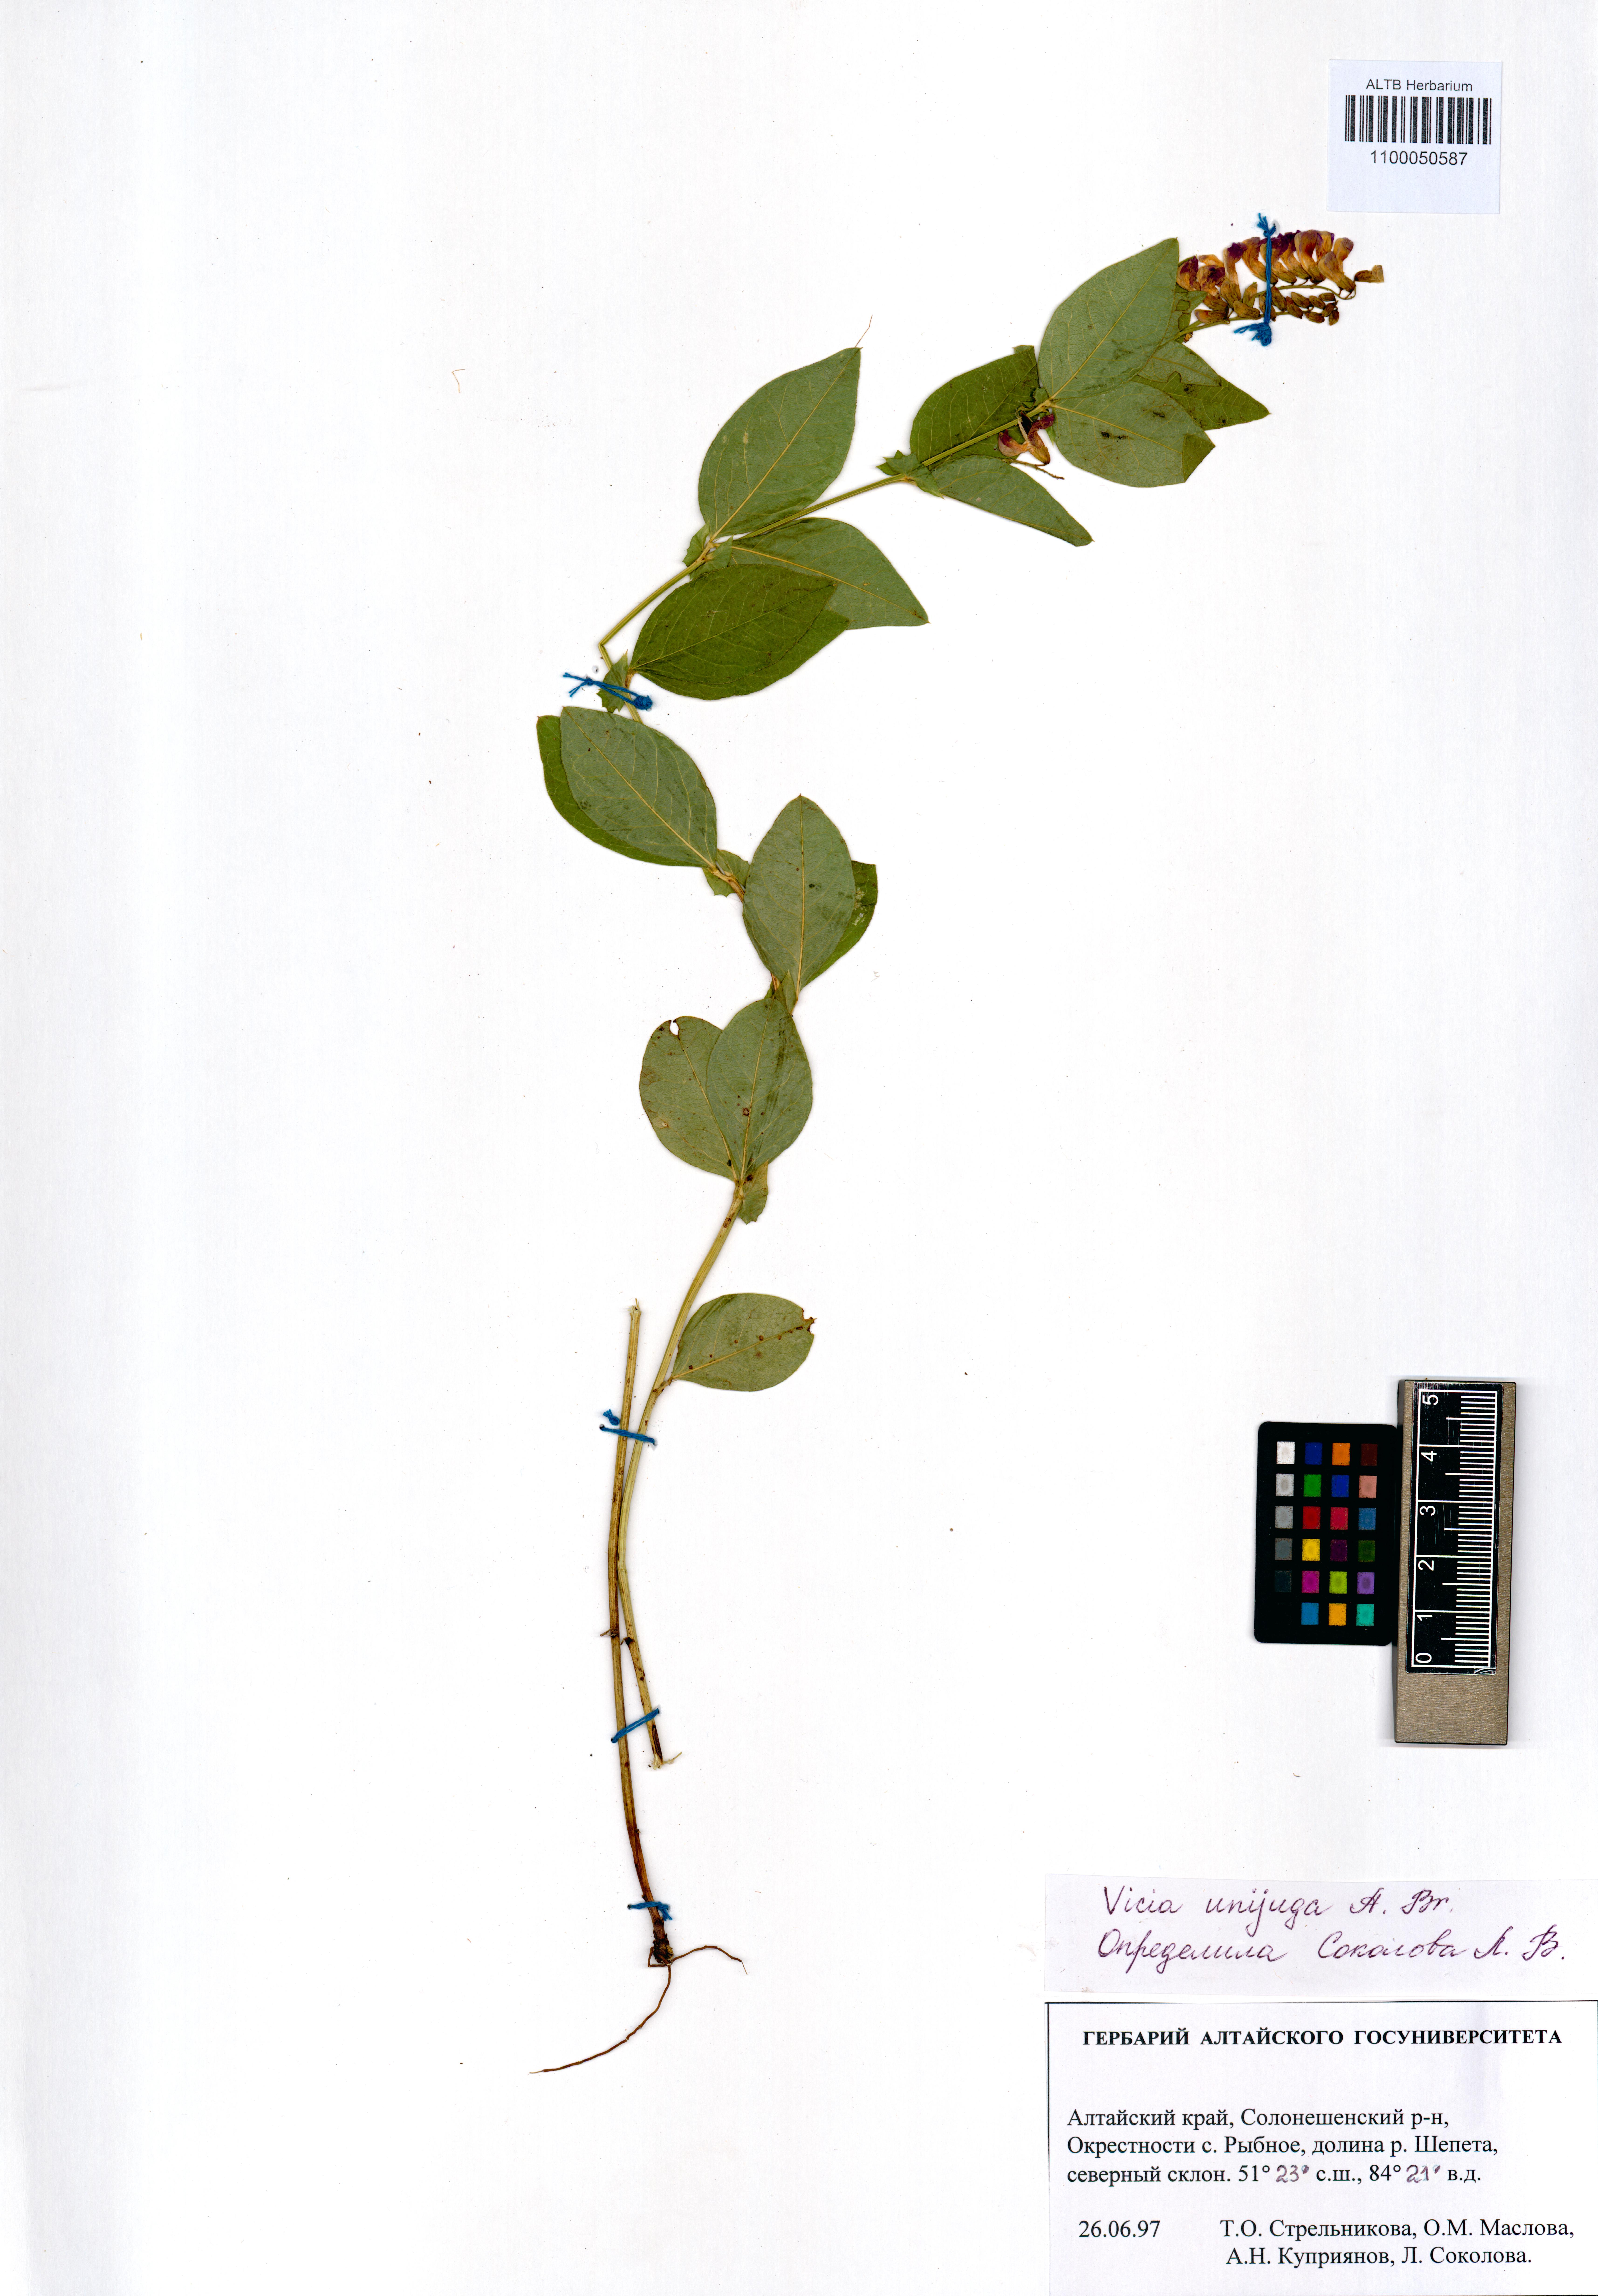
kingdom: Plantae
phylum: Tracheophyta
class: Magnoliopsida
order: Fabales
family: Fabaceae
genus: Vicia
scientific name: Vicia unijuga
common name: Two-leaf vetch
